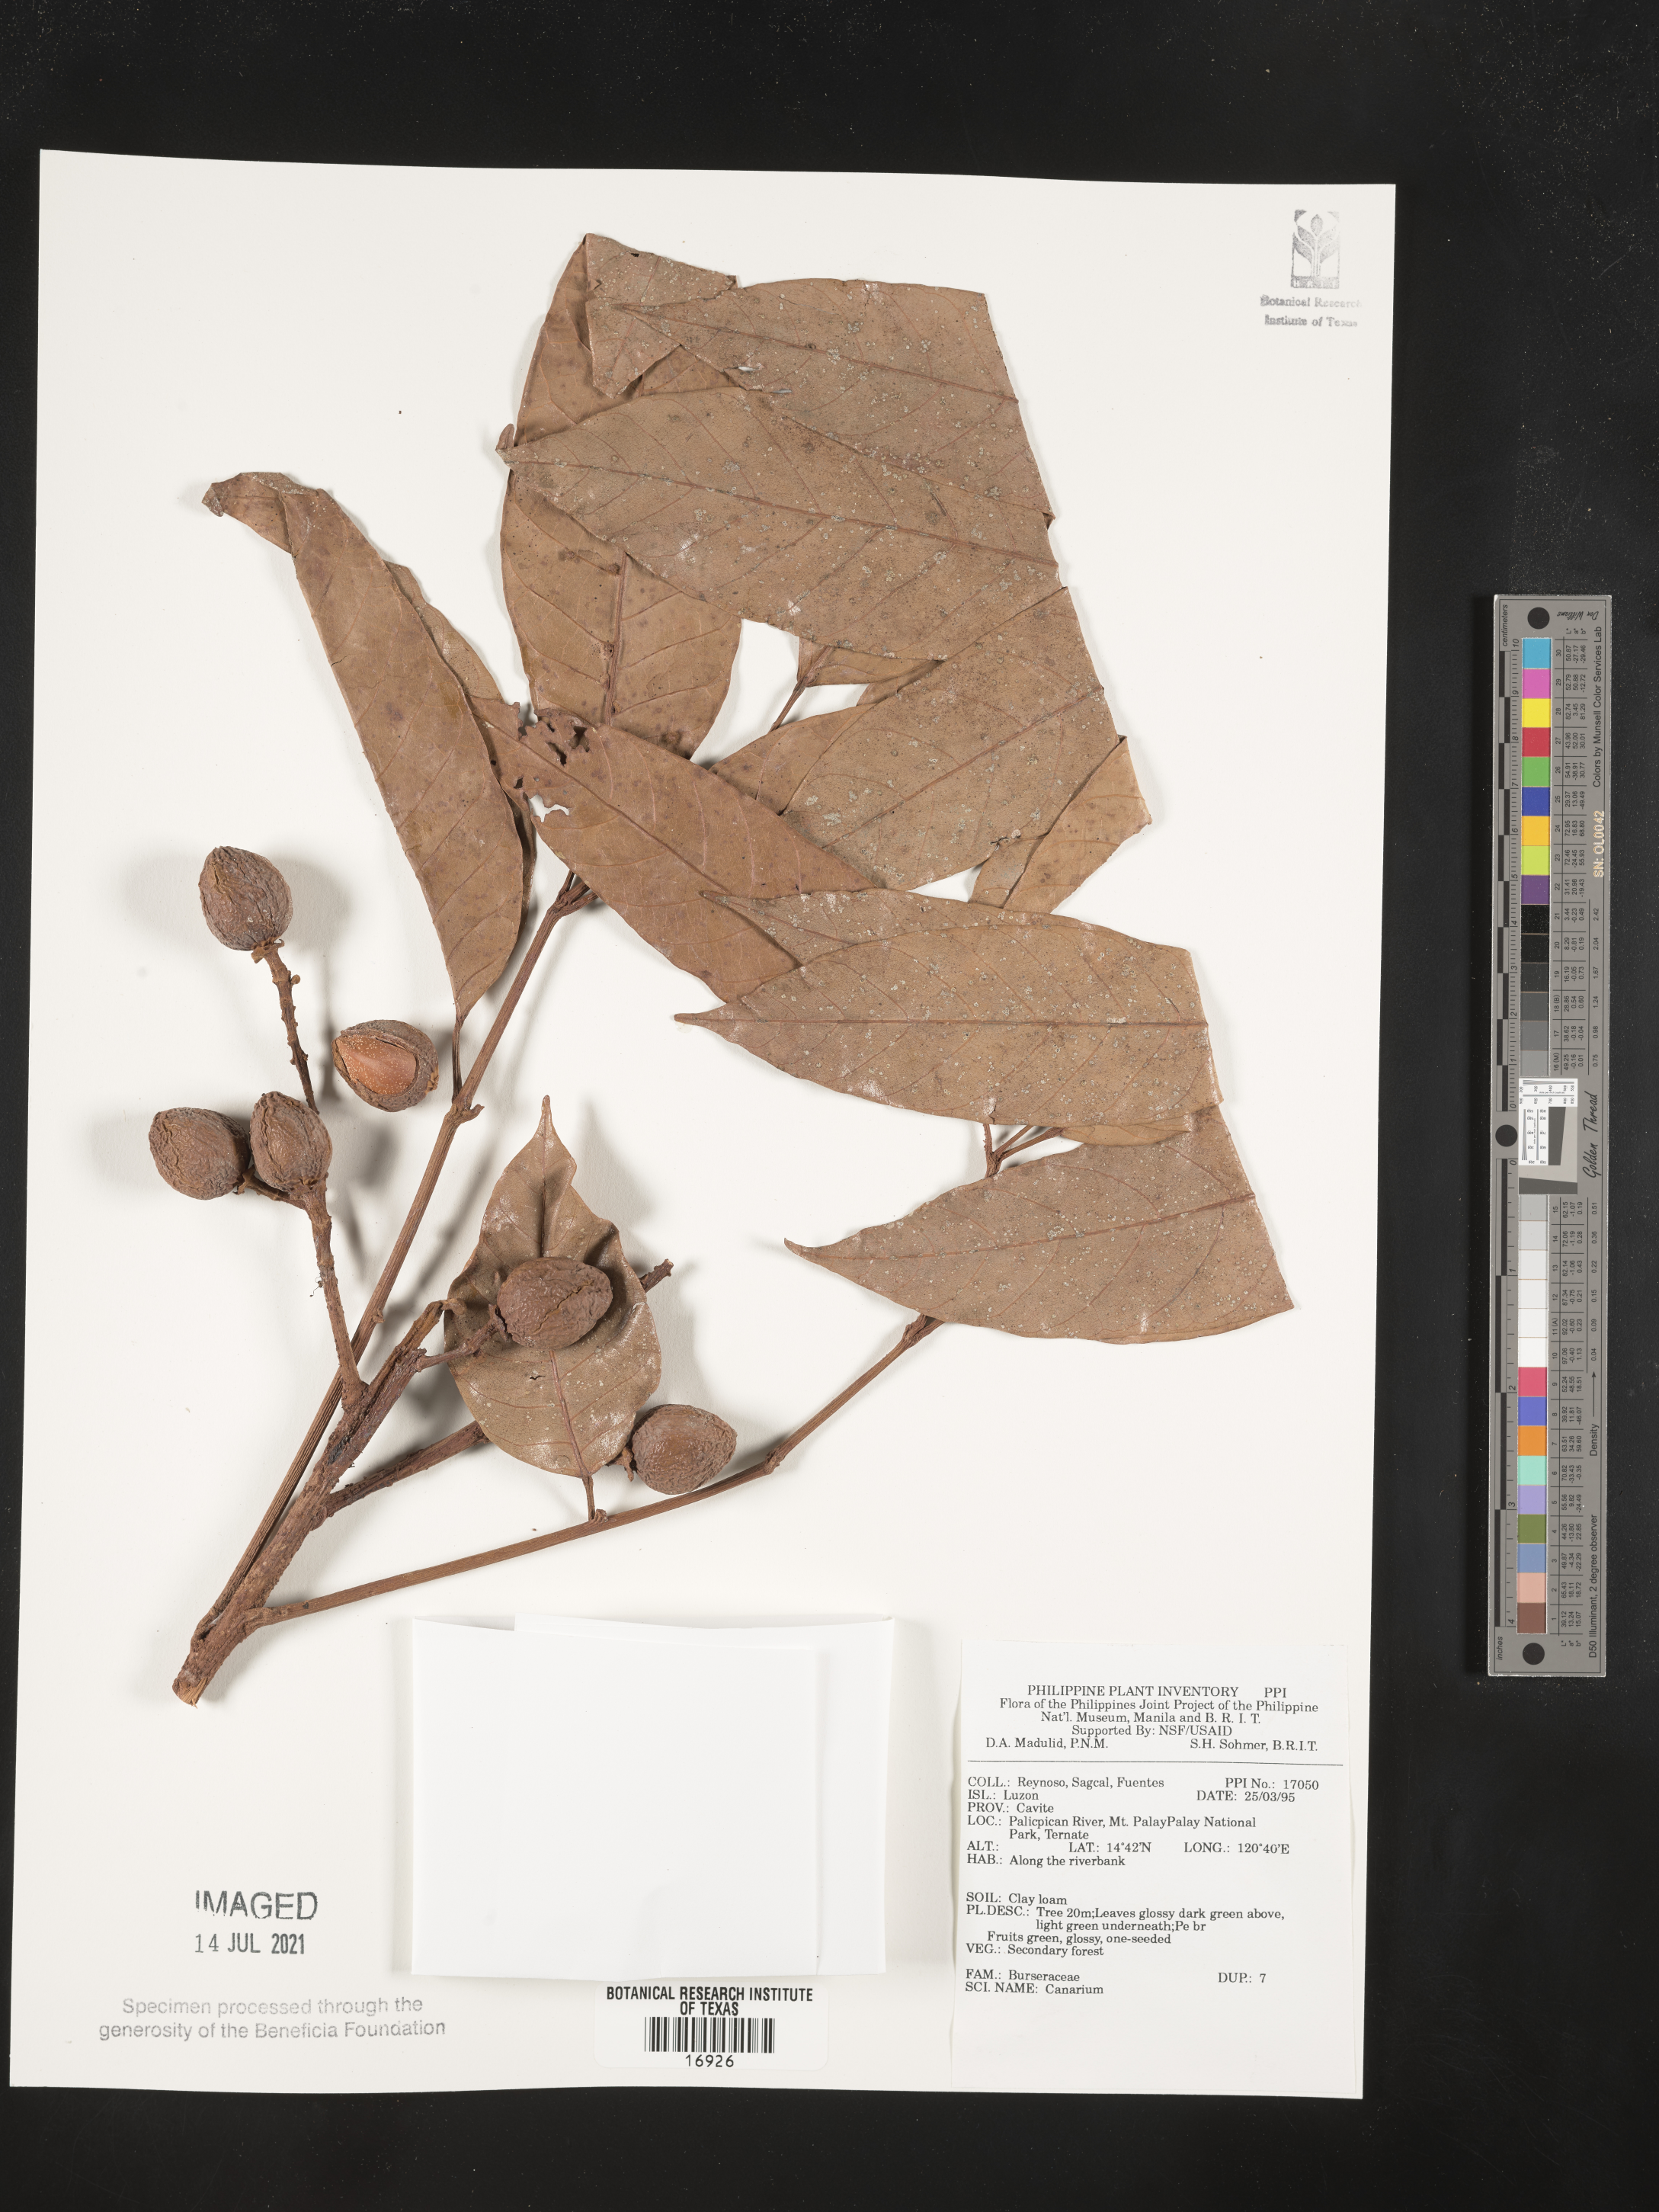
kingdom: Plantae
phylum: Tracheophyta
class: Magnoliopsida
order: Sapindales
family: Burseraceae
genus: Canarium
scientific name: Canarium
